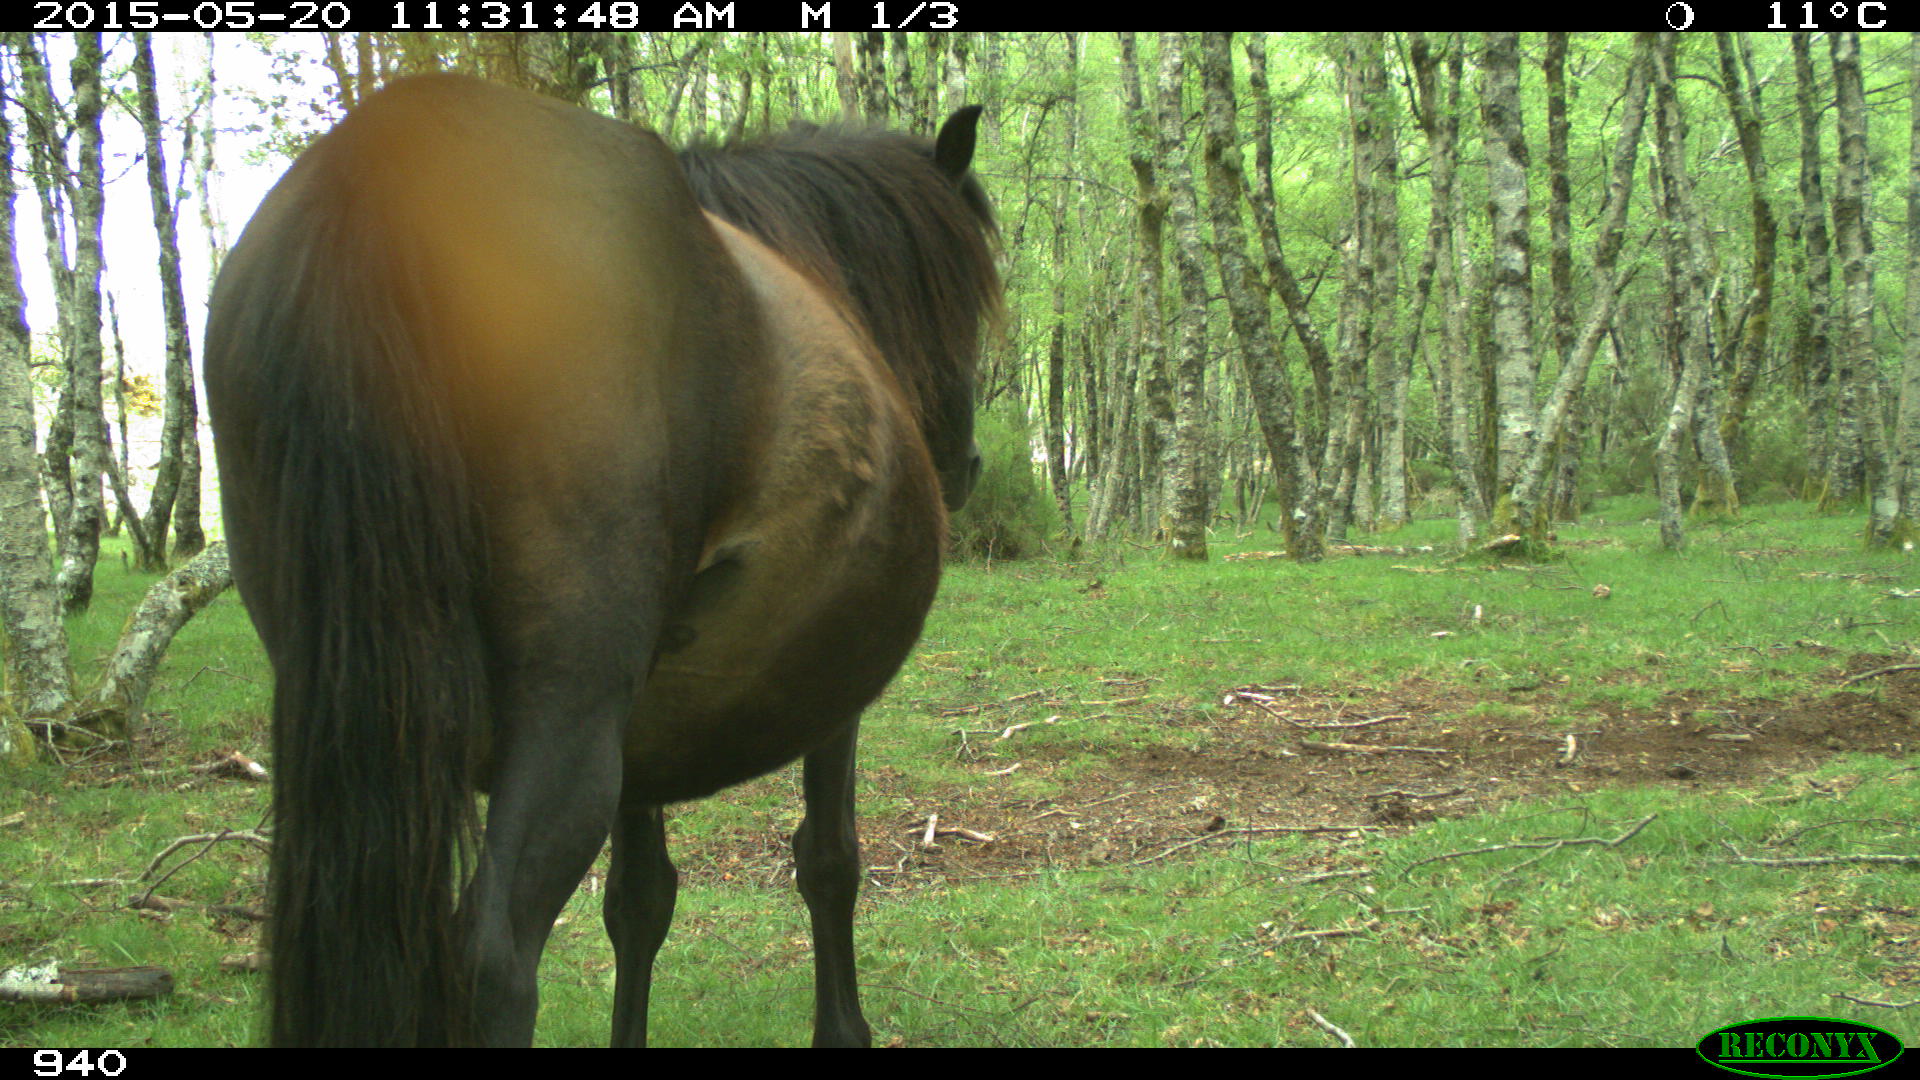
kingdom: Animalia
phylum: Chordata
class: Mammalia
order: Perissodactyla
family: Equidae
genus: Equus
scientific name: Equus caballus
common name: Horse
